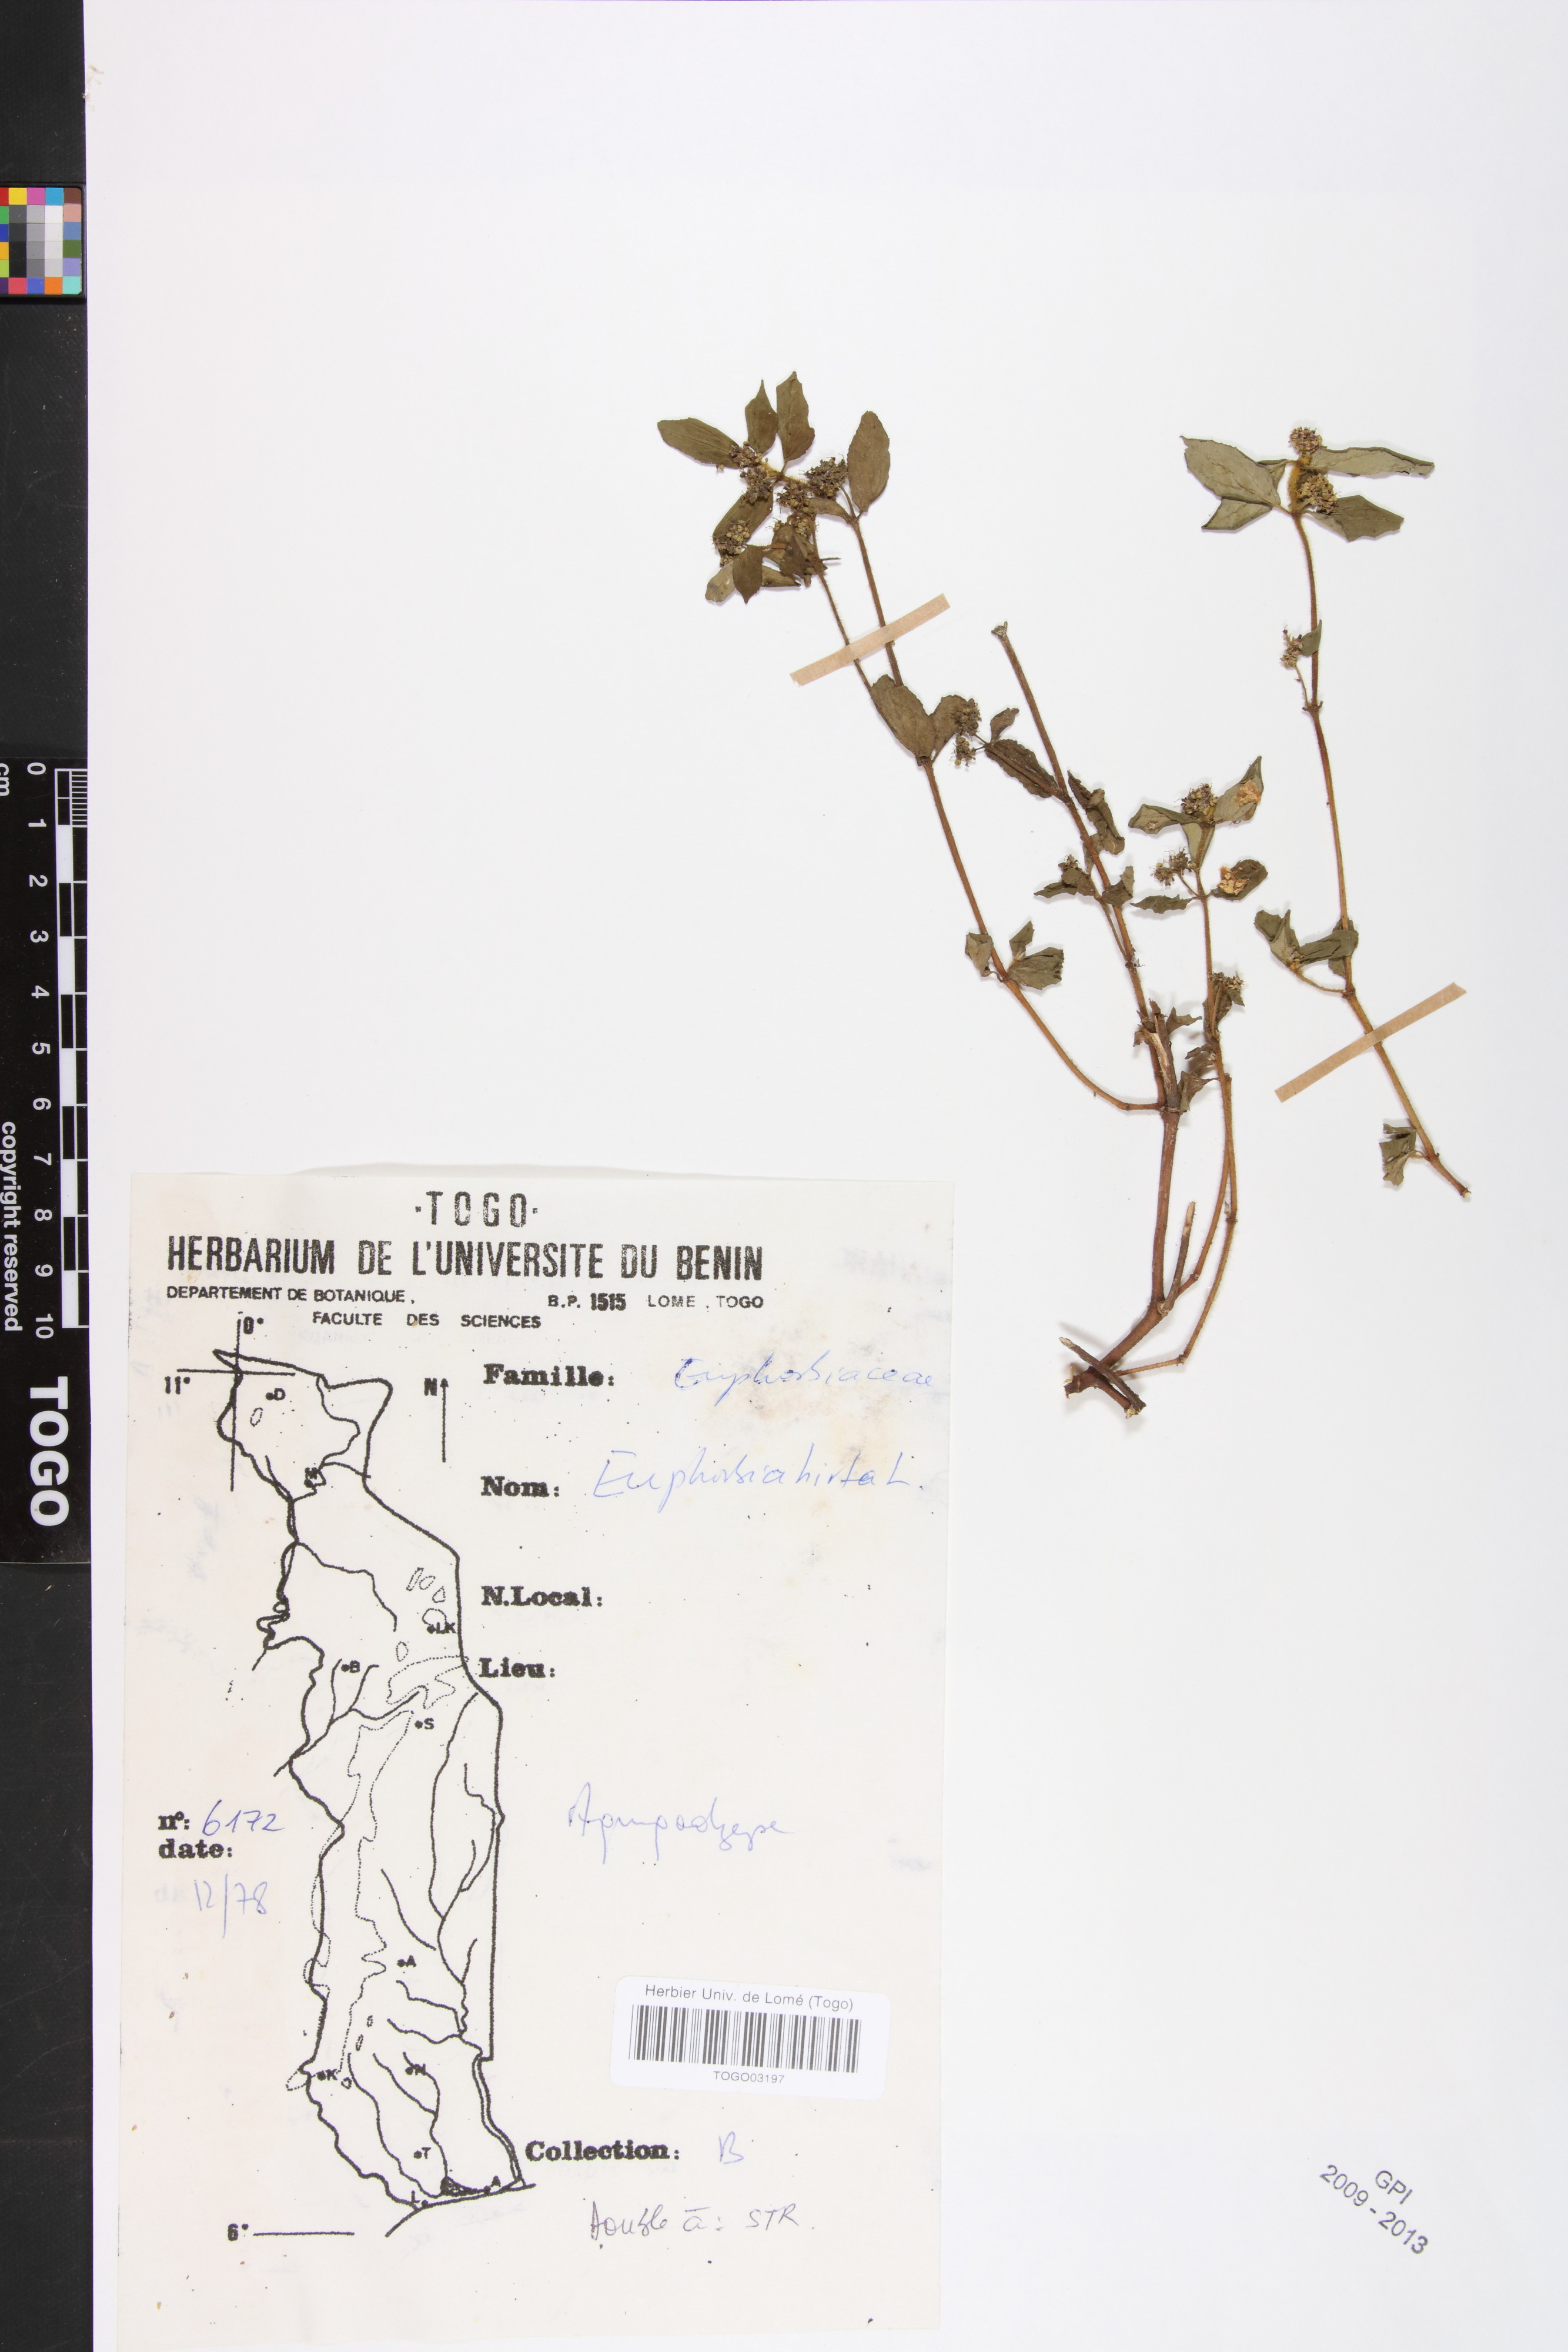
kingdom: Plantae
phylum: Tracheophyta
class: Magnoliopsida
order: Malpighiales
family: Euphorbiaceae
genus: Euphorbia
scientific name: Euphorbia hirta
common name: Pillpod sandmat
